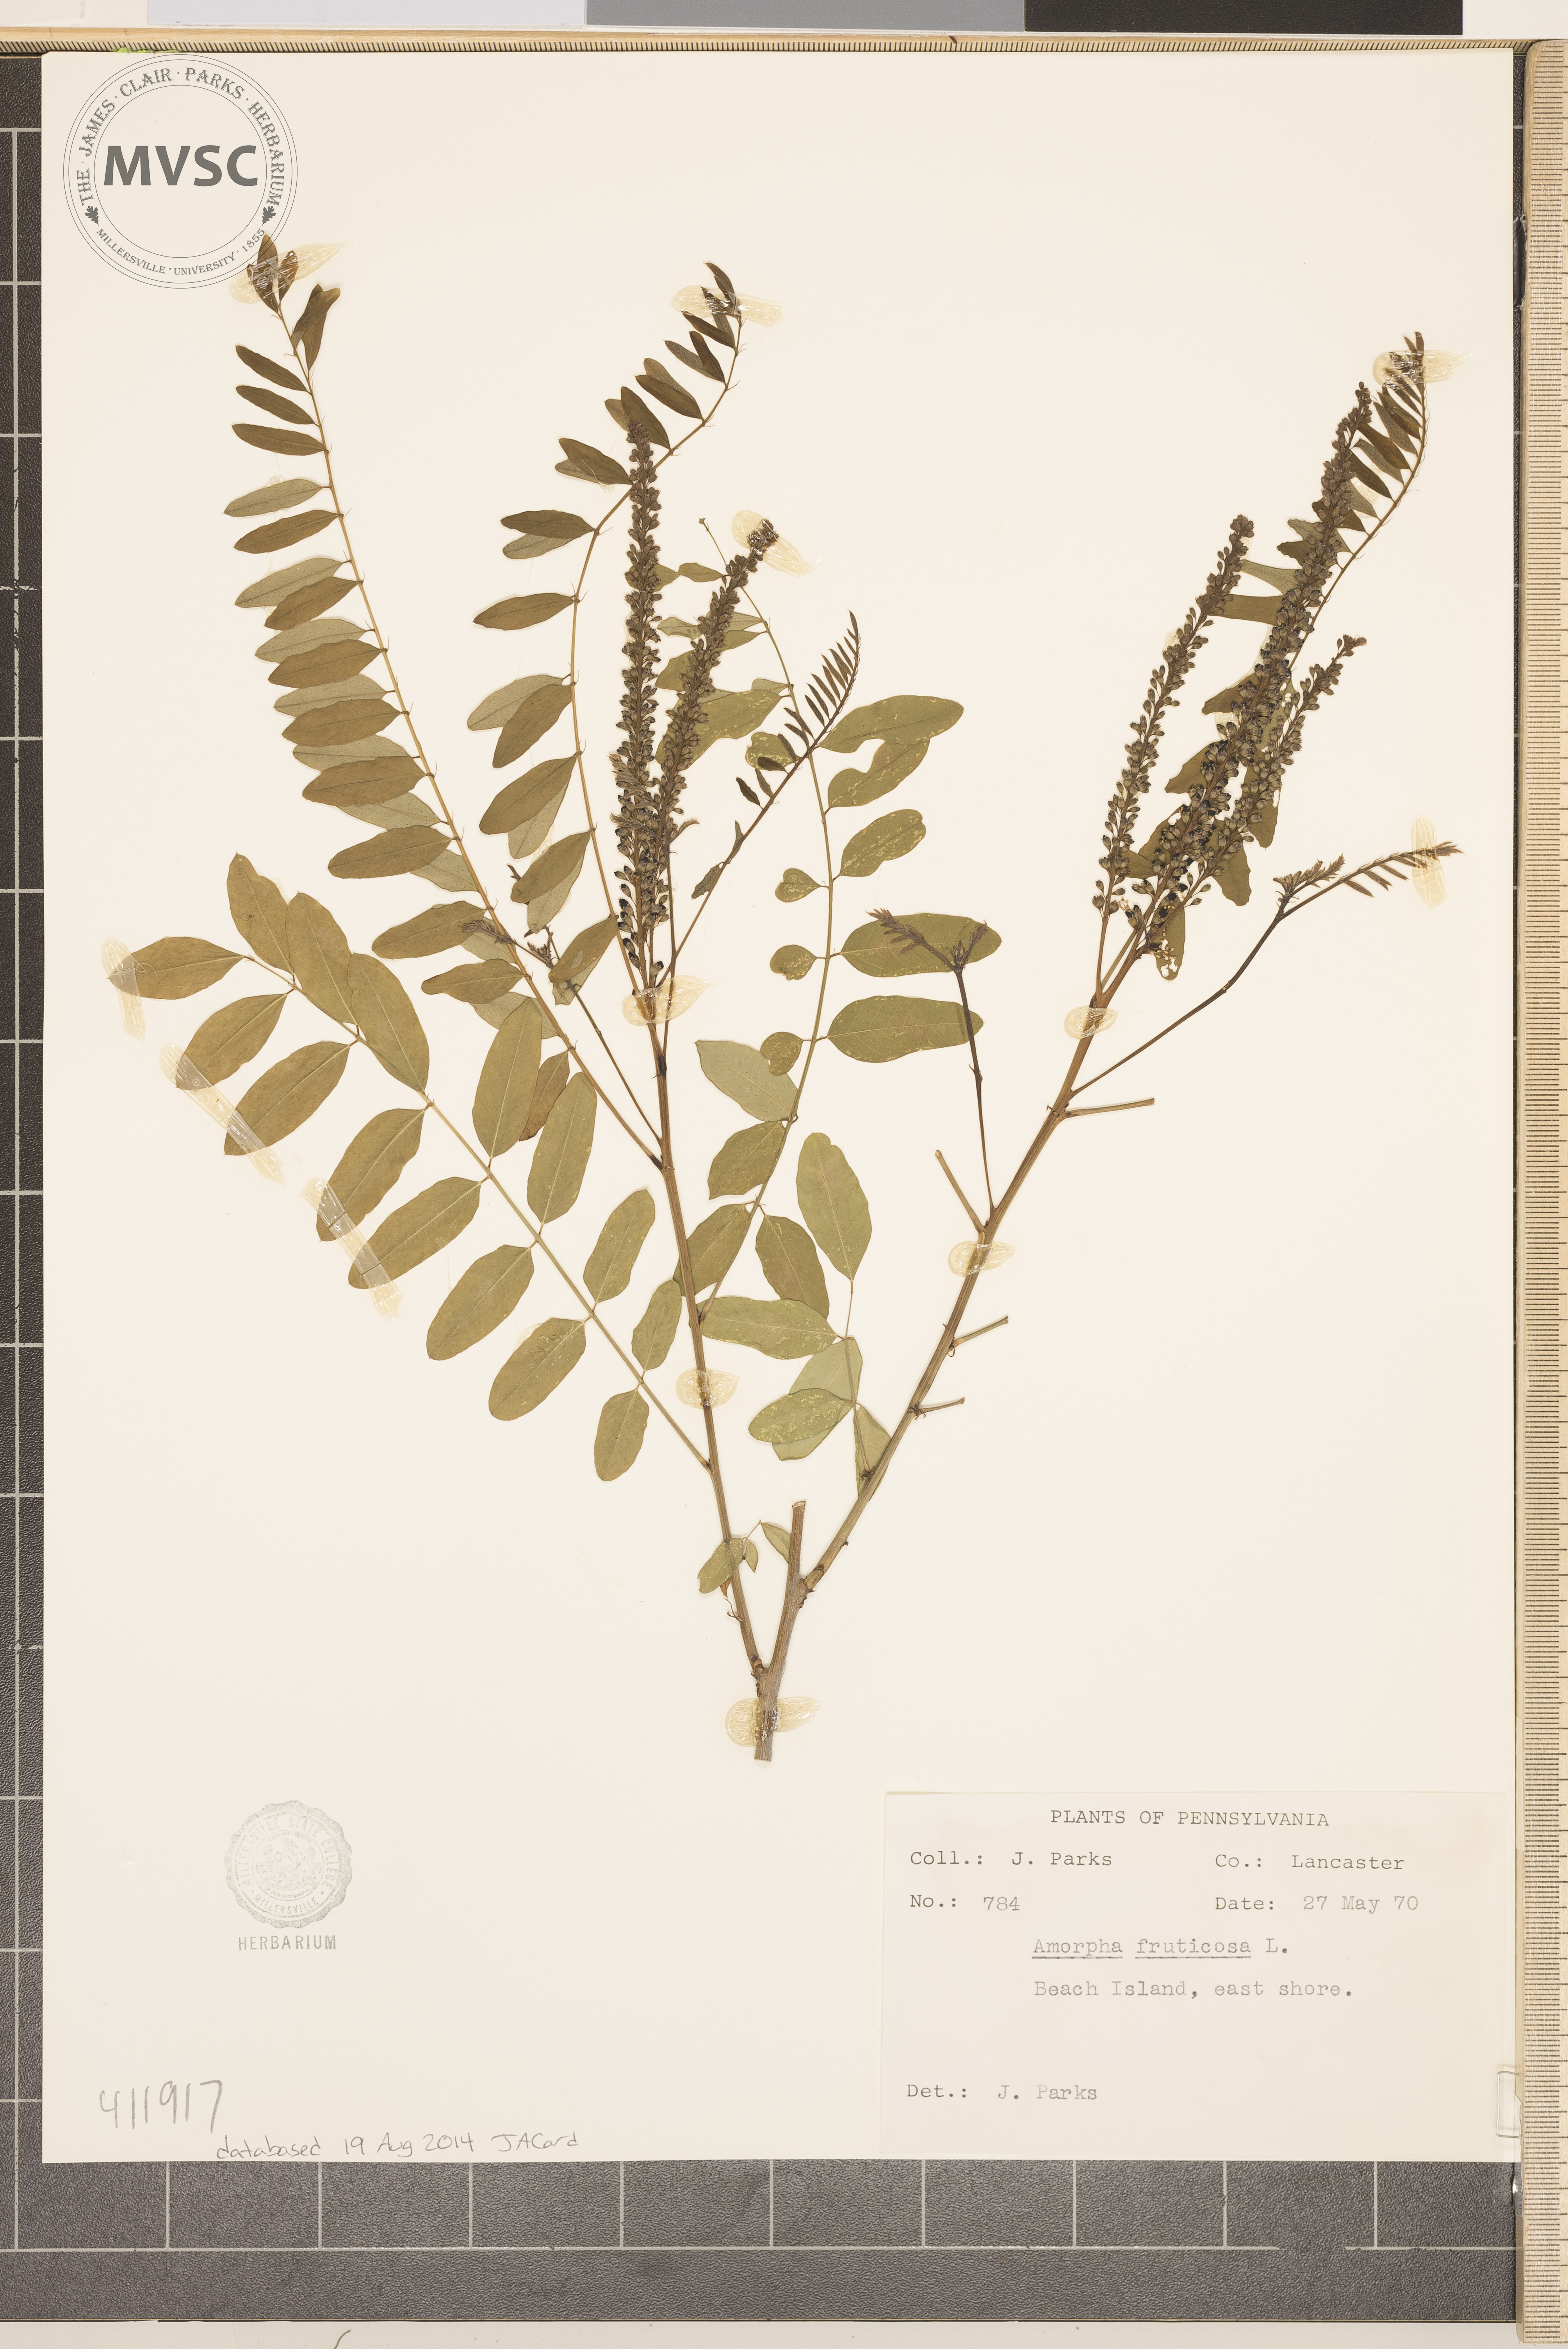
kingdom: Plantae
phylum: Tracheophyta
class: Magnoliopsida
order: Fabales
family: Fabaceae
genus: Amorpha
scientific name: Amorpha fruticosa
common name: False indigo
